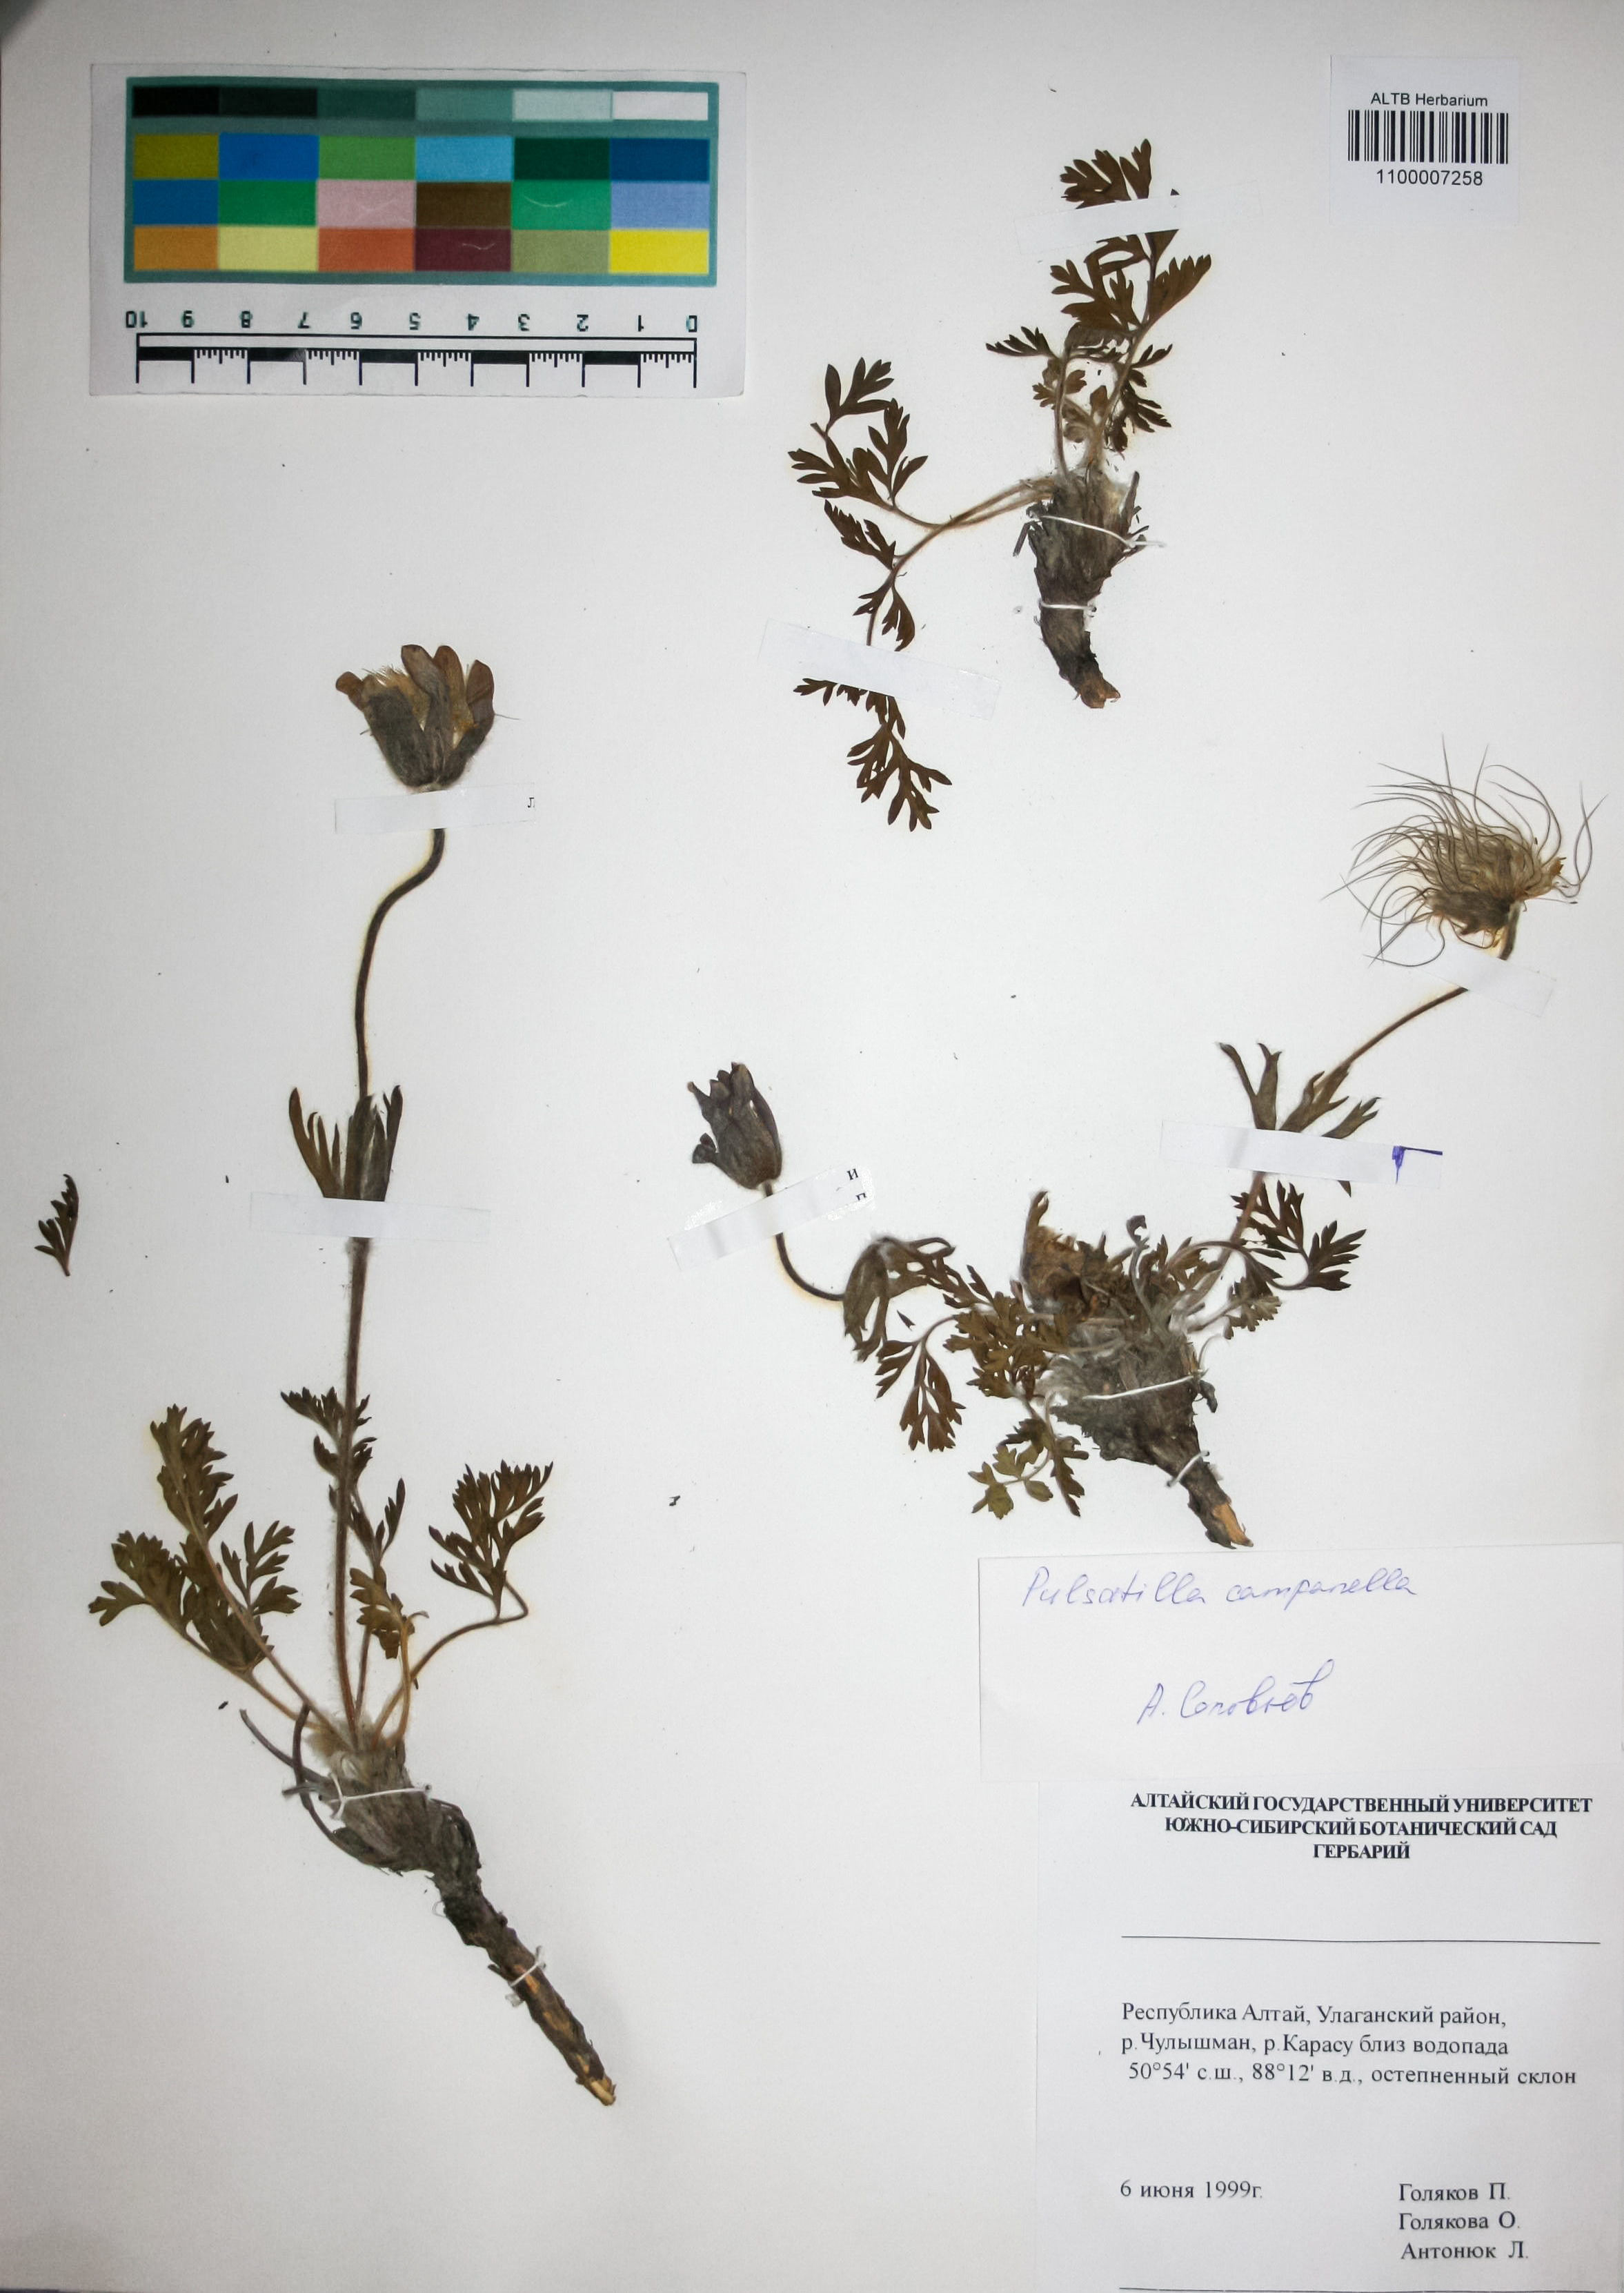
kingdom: Plantae
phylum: Tracheophyta
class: Magnoliopsida
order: Ranunculales
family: Ranunculaceae
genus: Pulsatilla
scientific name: Pulsatilla campanella
